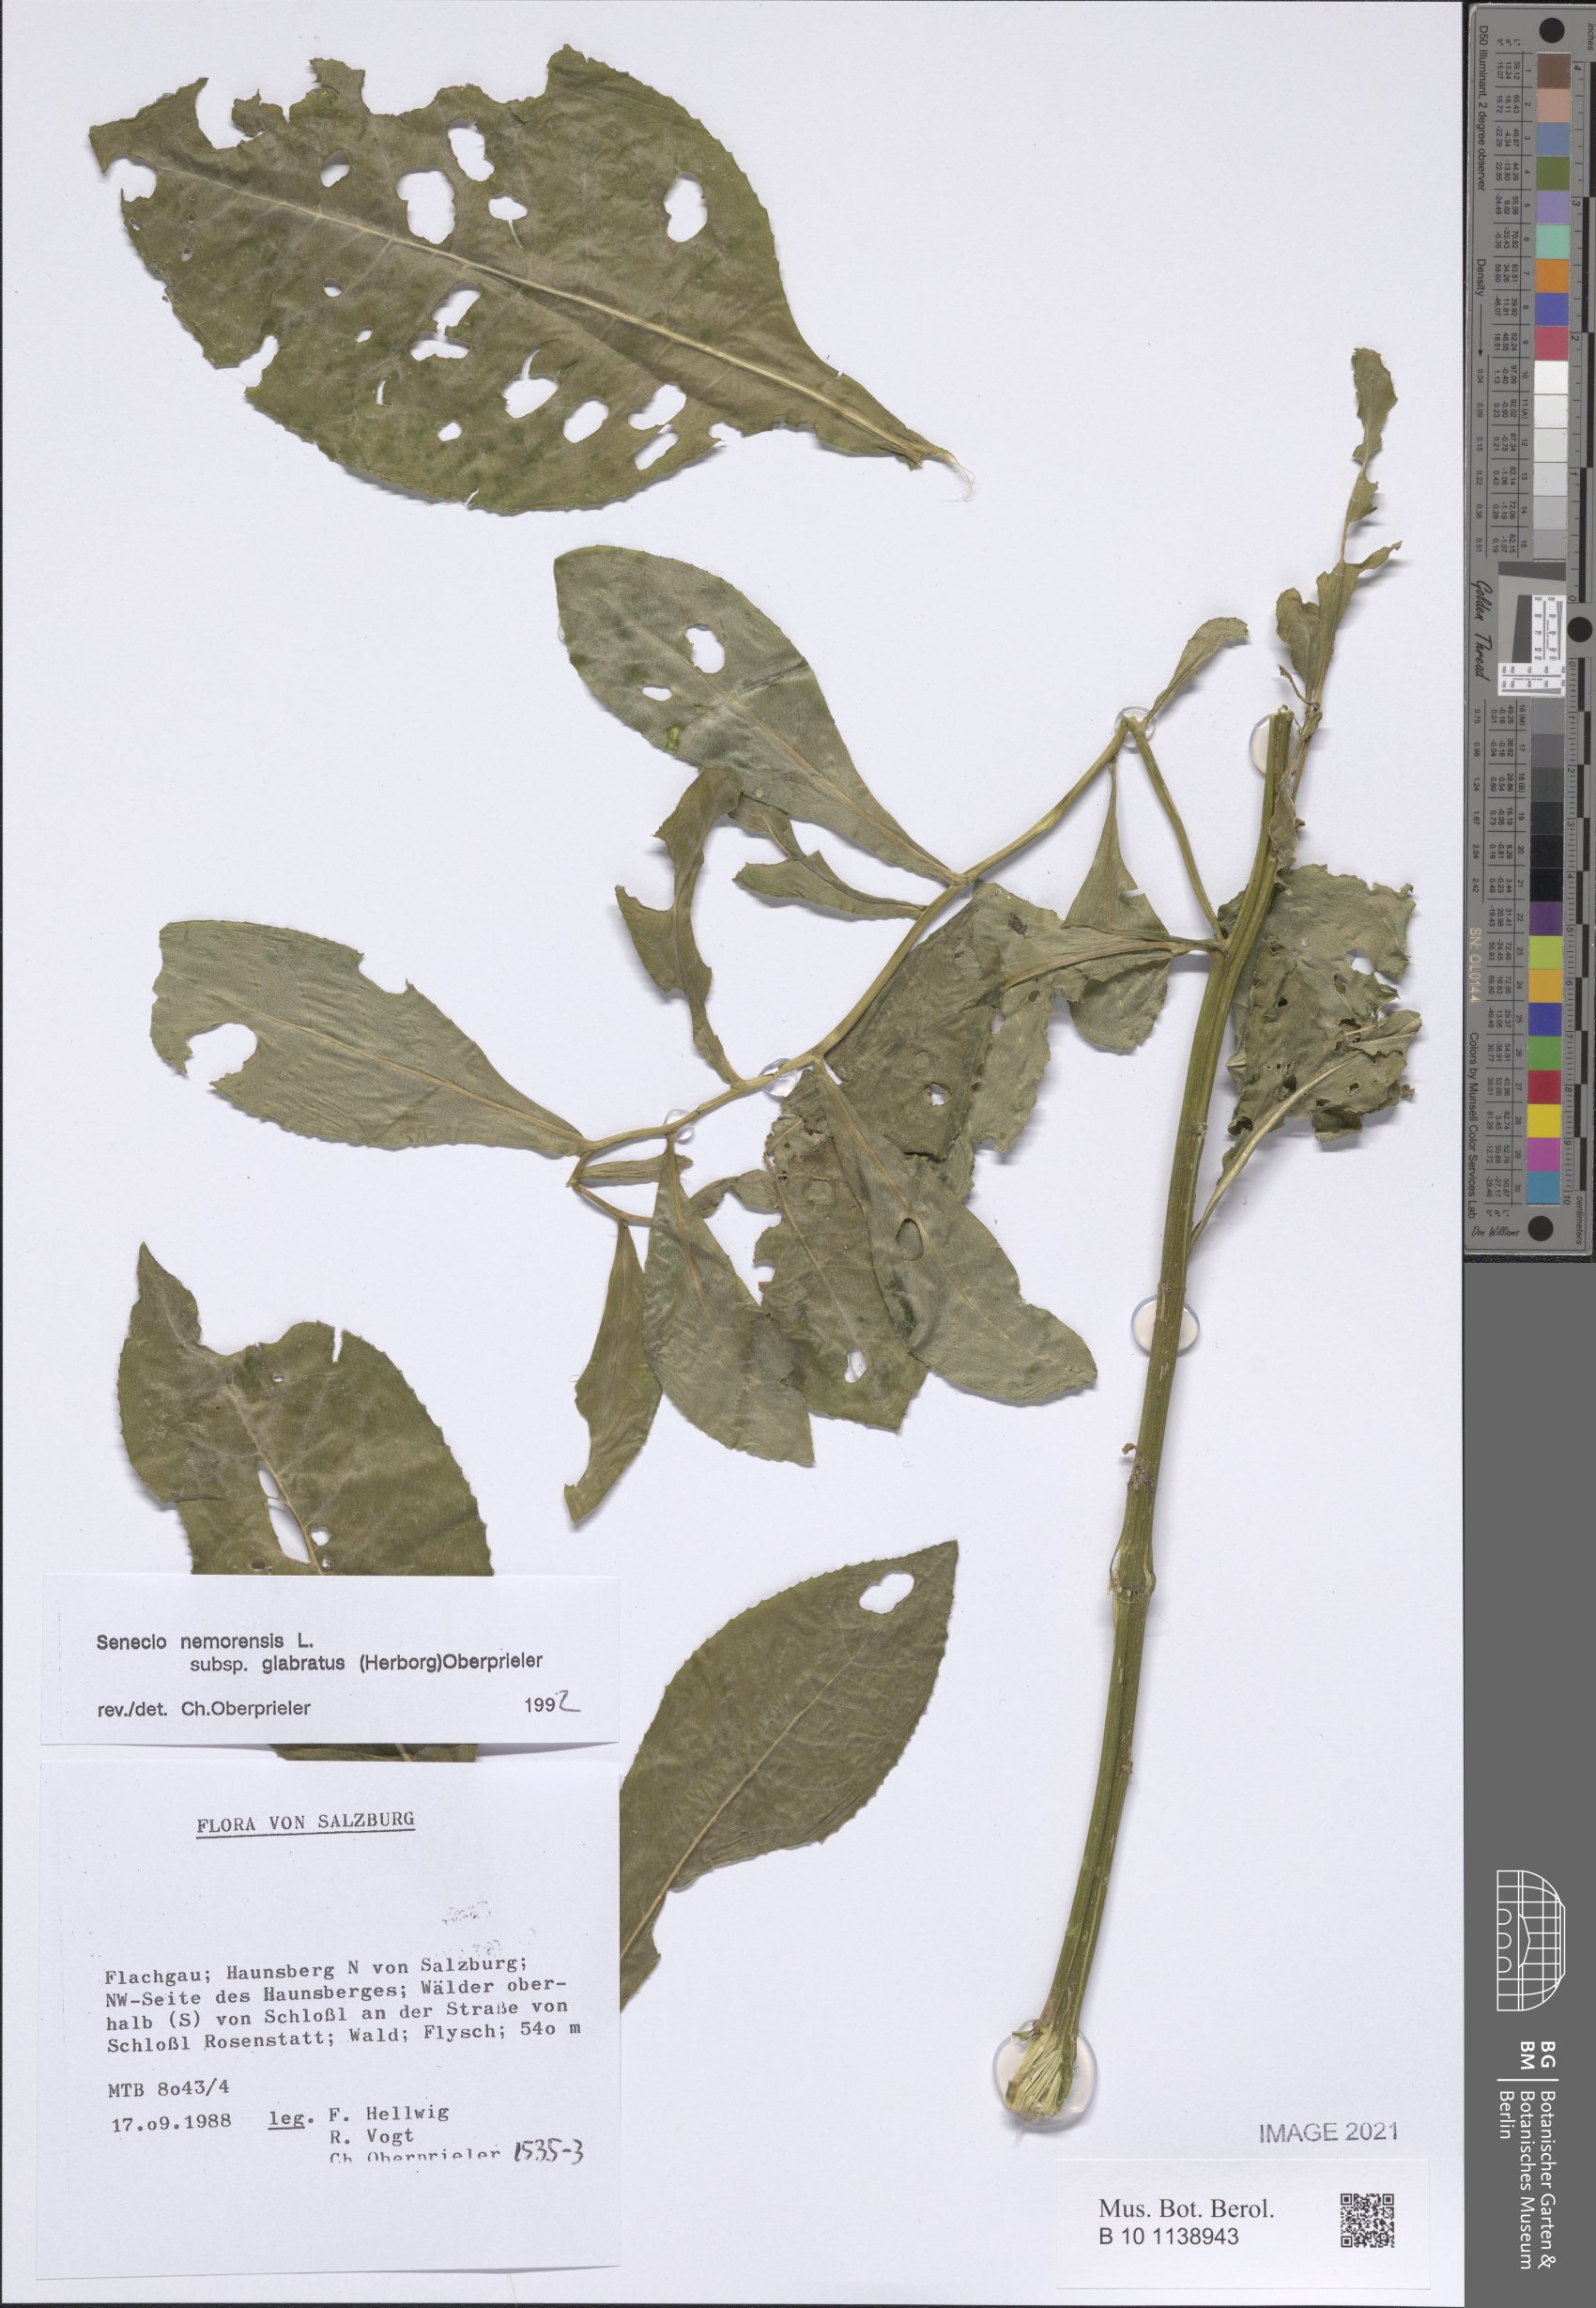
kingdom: Plantae
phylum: Tracheophyta
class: Magnoliopsida
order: Asterales
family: Asteraceae
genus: Senecio
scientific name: Senecio germanicus
